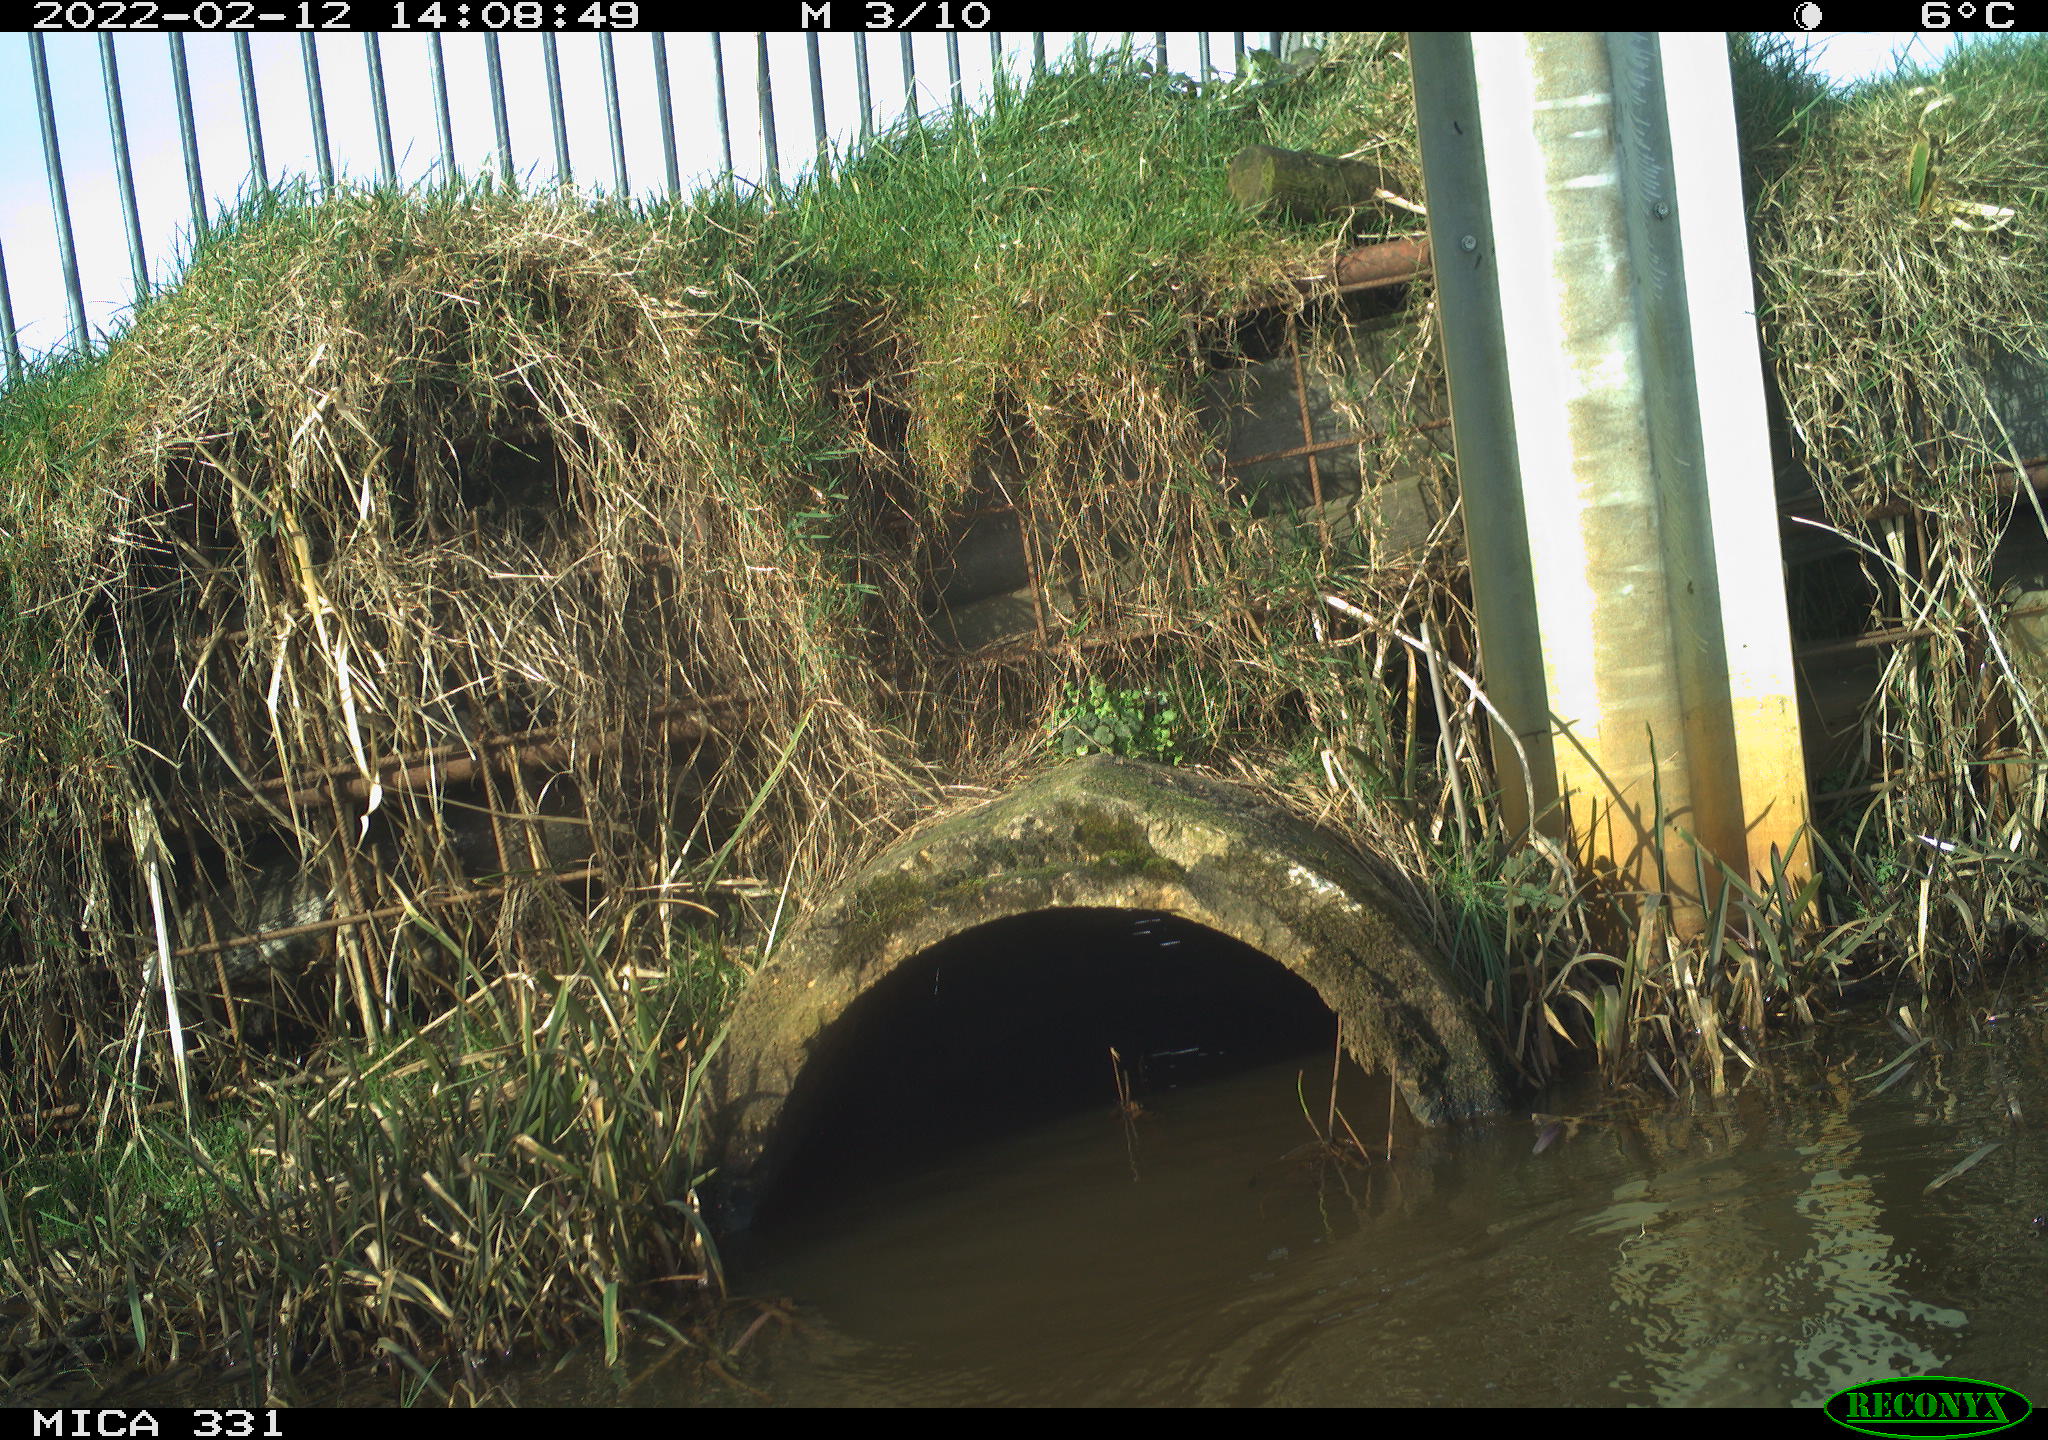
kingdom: Animalia
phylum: Chordata
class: Aves
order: Pelecaniformes
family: Ardeidae
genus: Ardea
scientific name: Ardea alba
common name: Great egret
